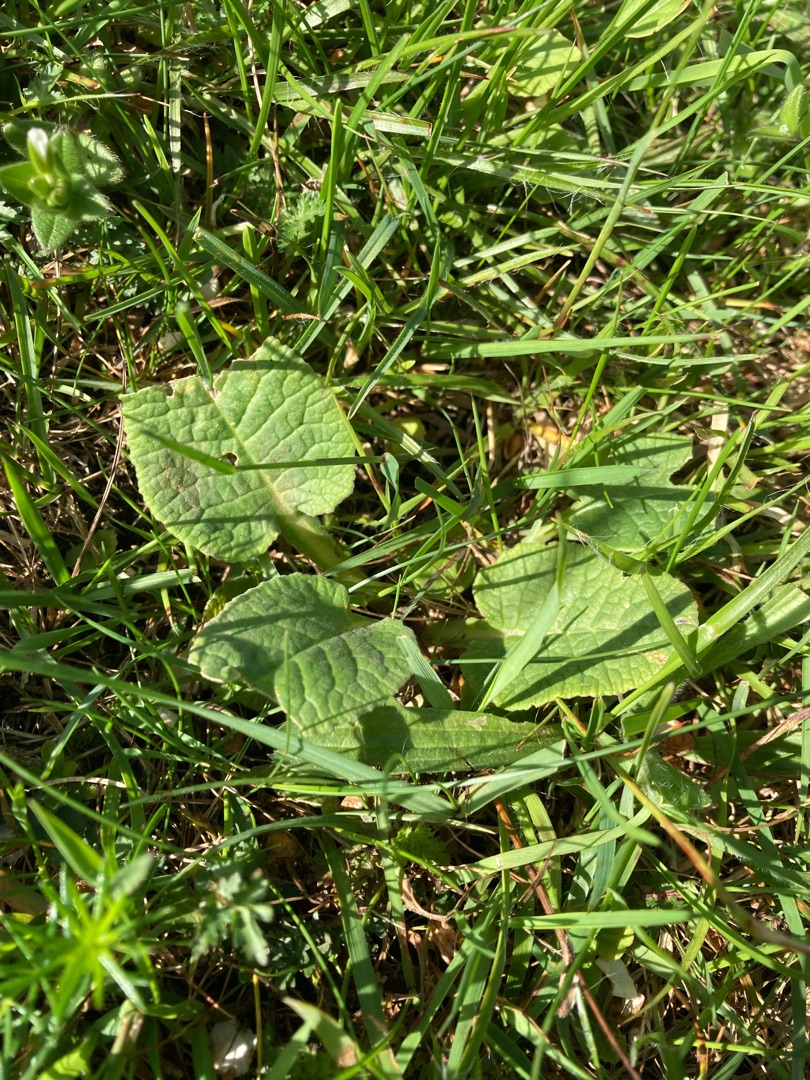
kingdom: Plantae
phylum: Tracheophyta
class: Magnoliopsida
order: Ericales
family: Primulaceae
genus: Primula
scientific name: Primula veris
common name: Hulkravet kodriver
